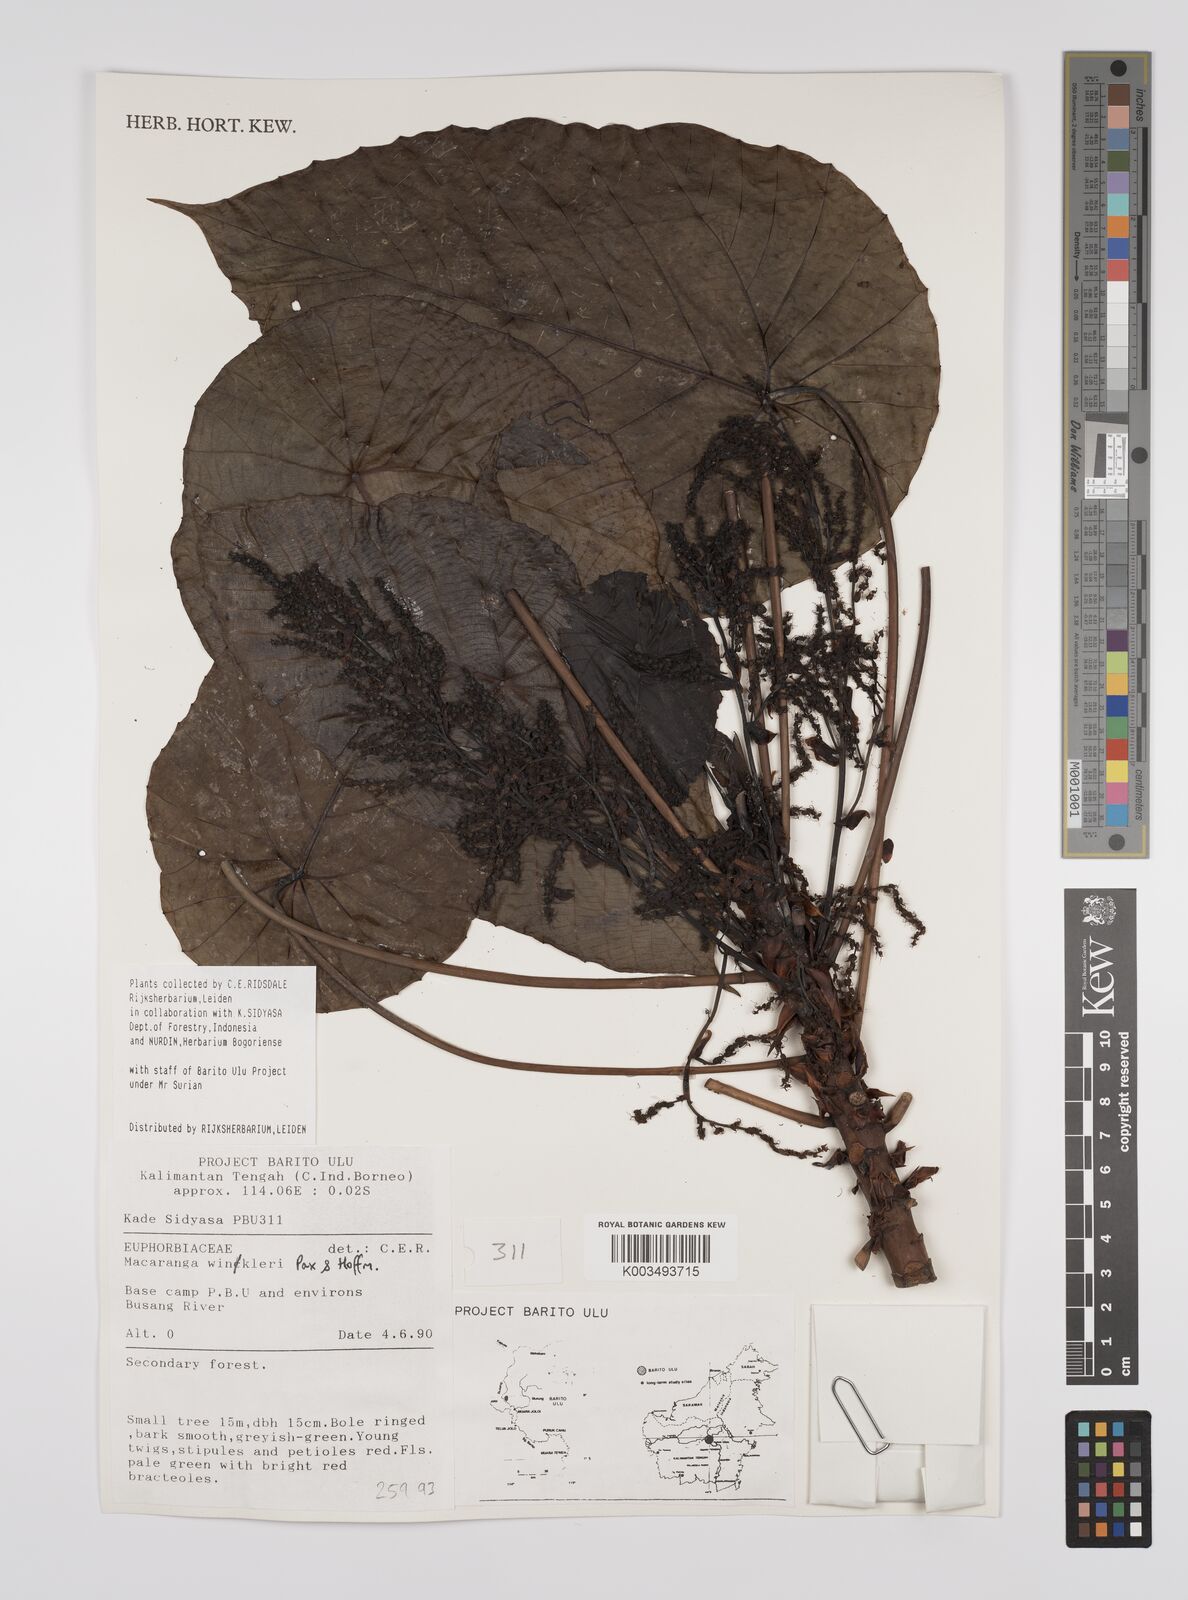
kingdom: Plantae
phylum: Tracheophyta
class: Magnoliopsida
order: Malpighiales
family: Euphorbiaceae
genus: Macaranga
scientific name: Macaranga winkleri
